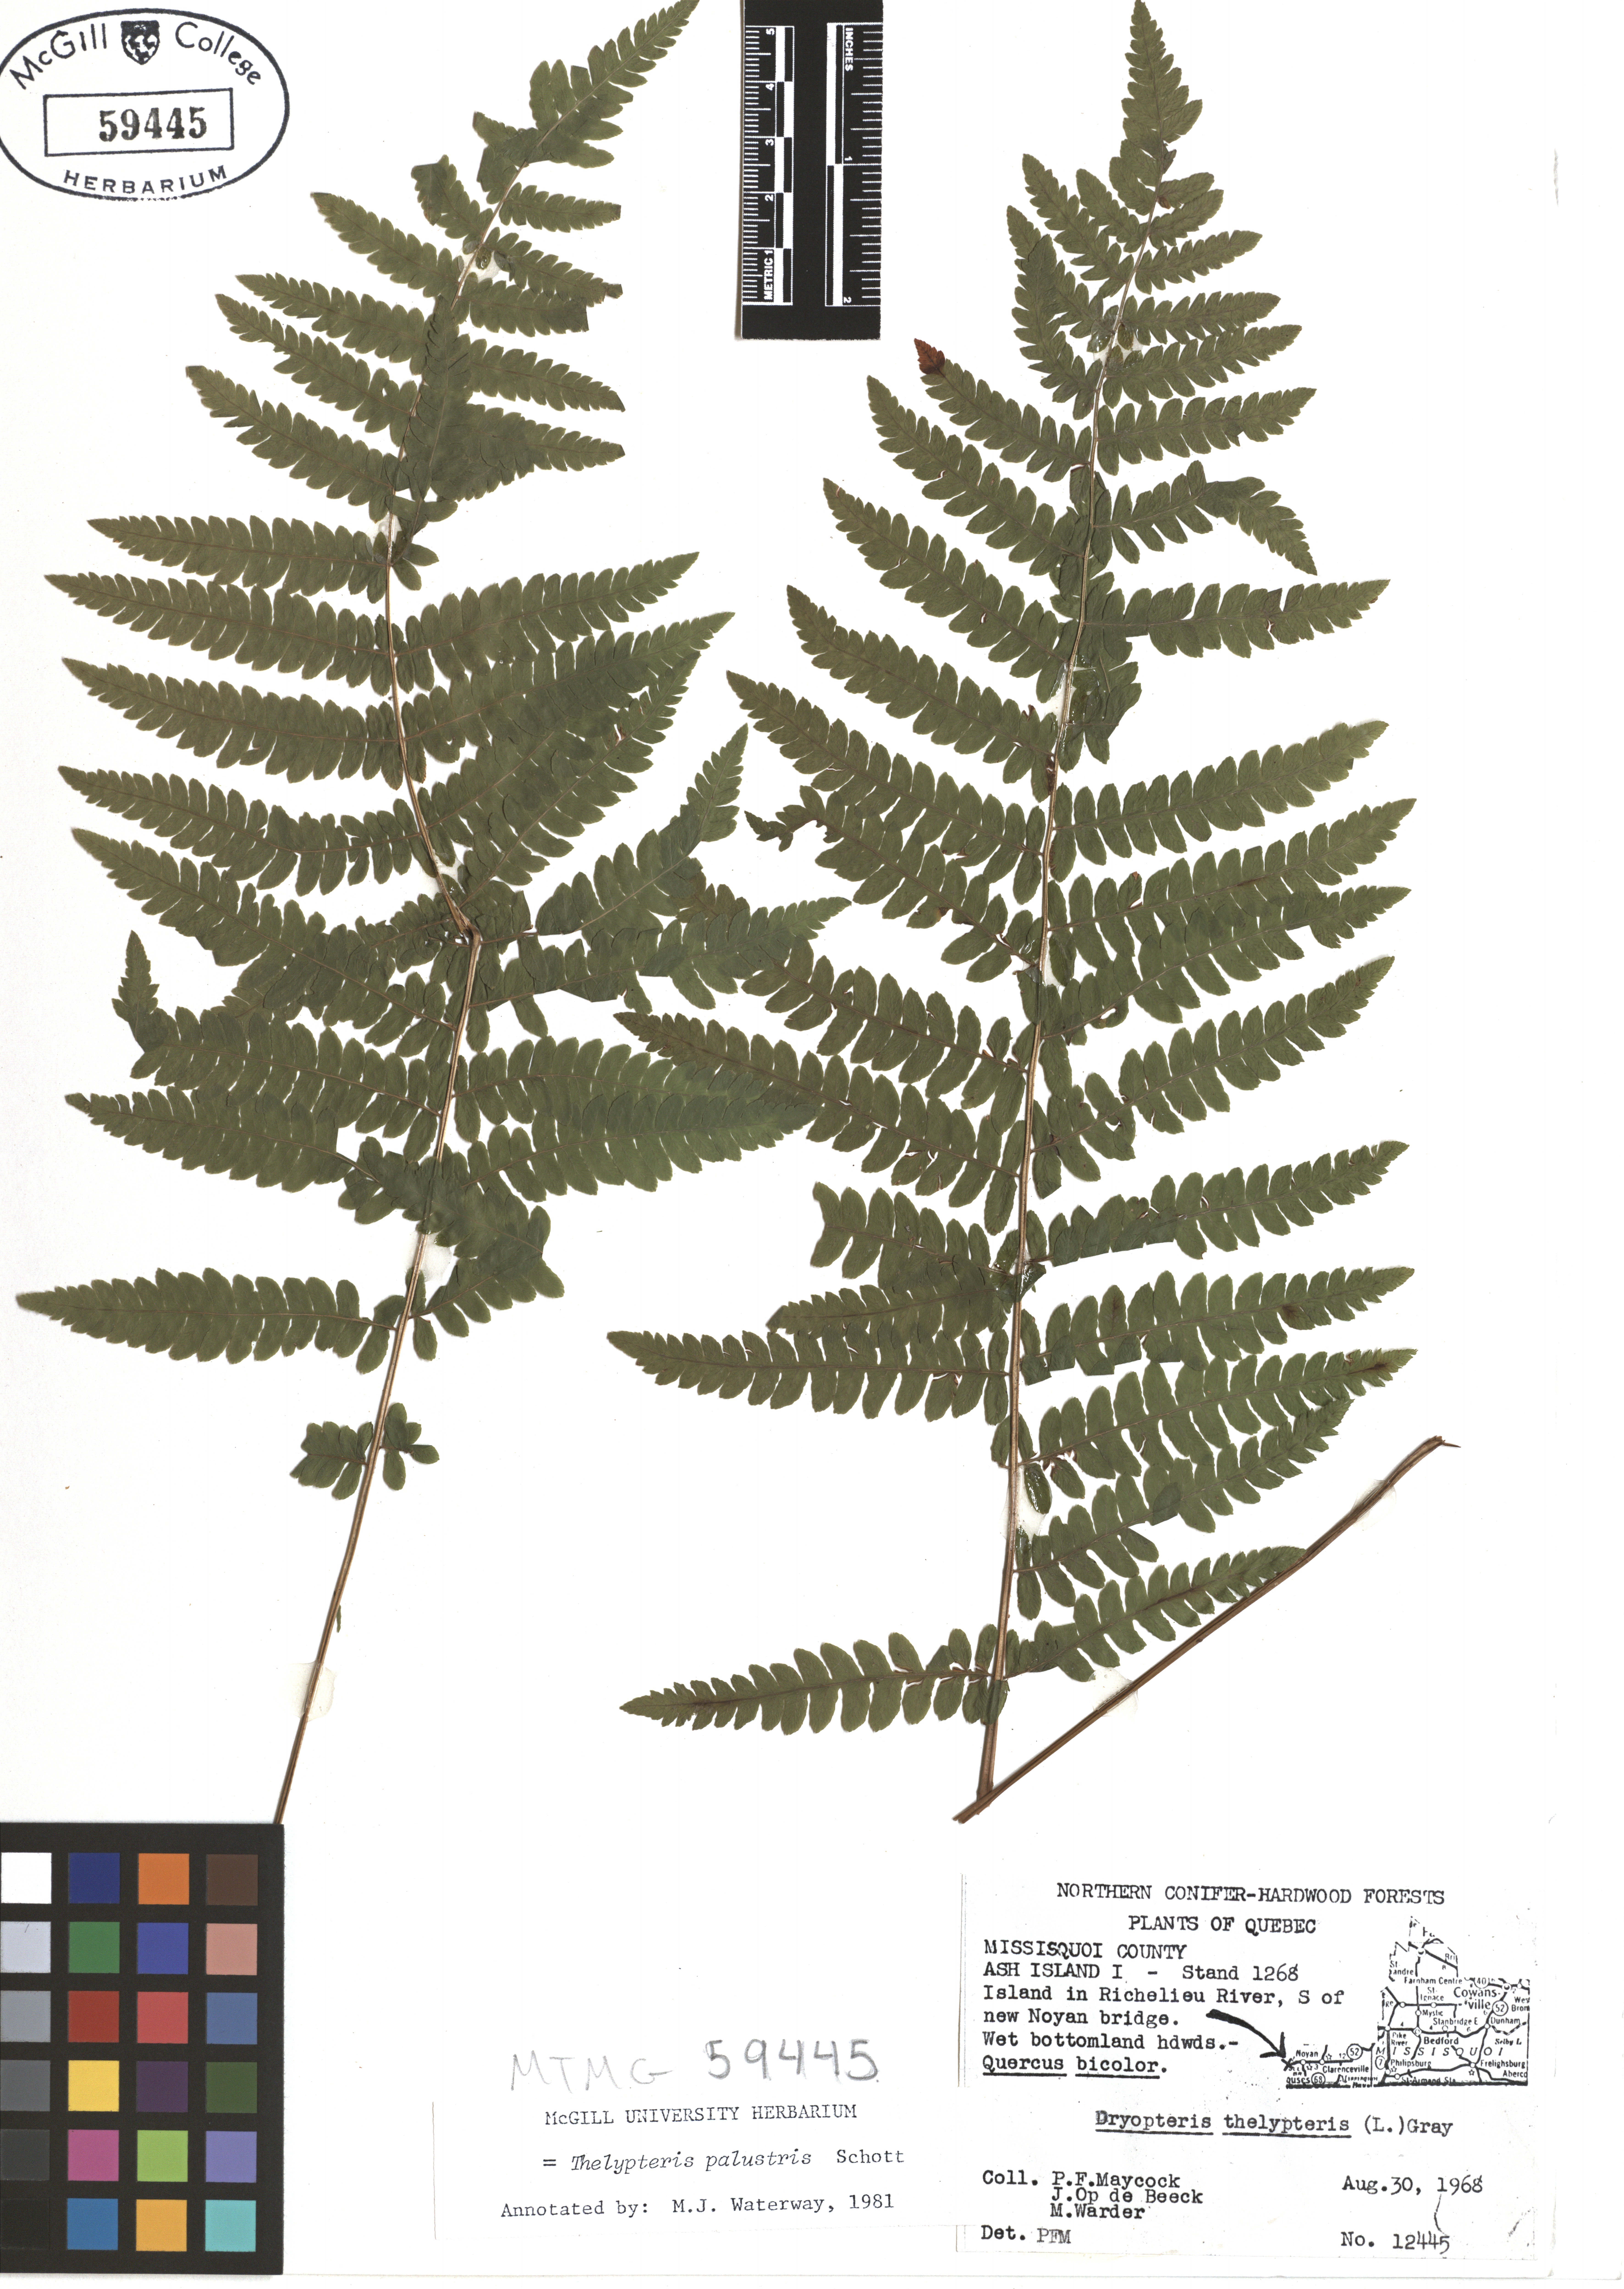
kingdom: Plantae
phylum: Tracheophyta
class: Polypodiopsida
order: Polypodiales
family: Thelypteridaceae
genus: Thelypteris
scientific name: Thelypteris palustris
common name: Marsh fern
